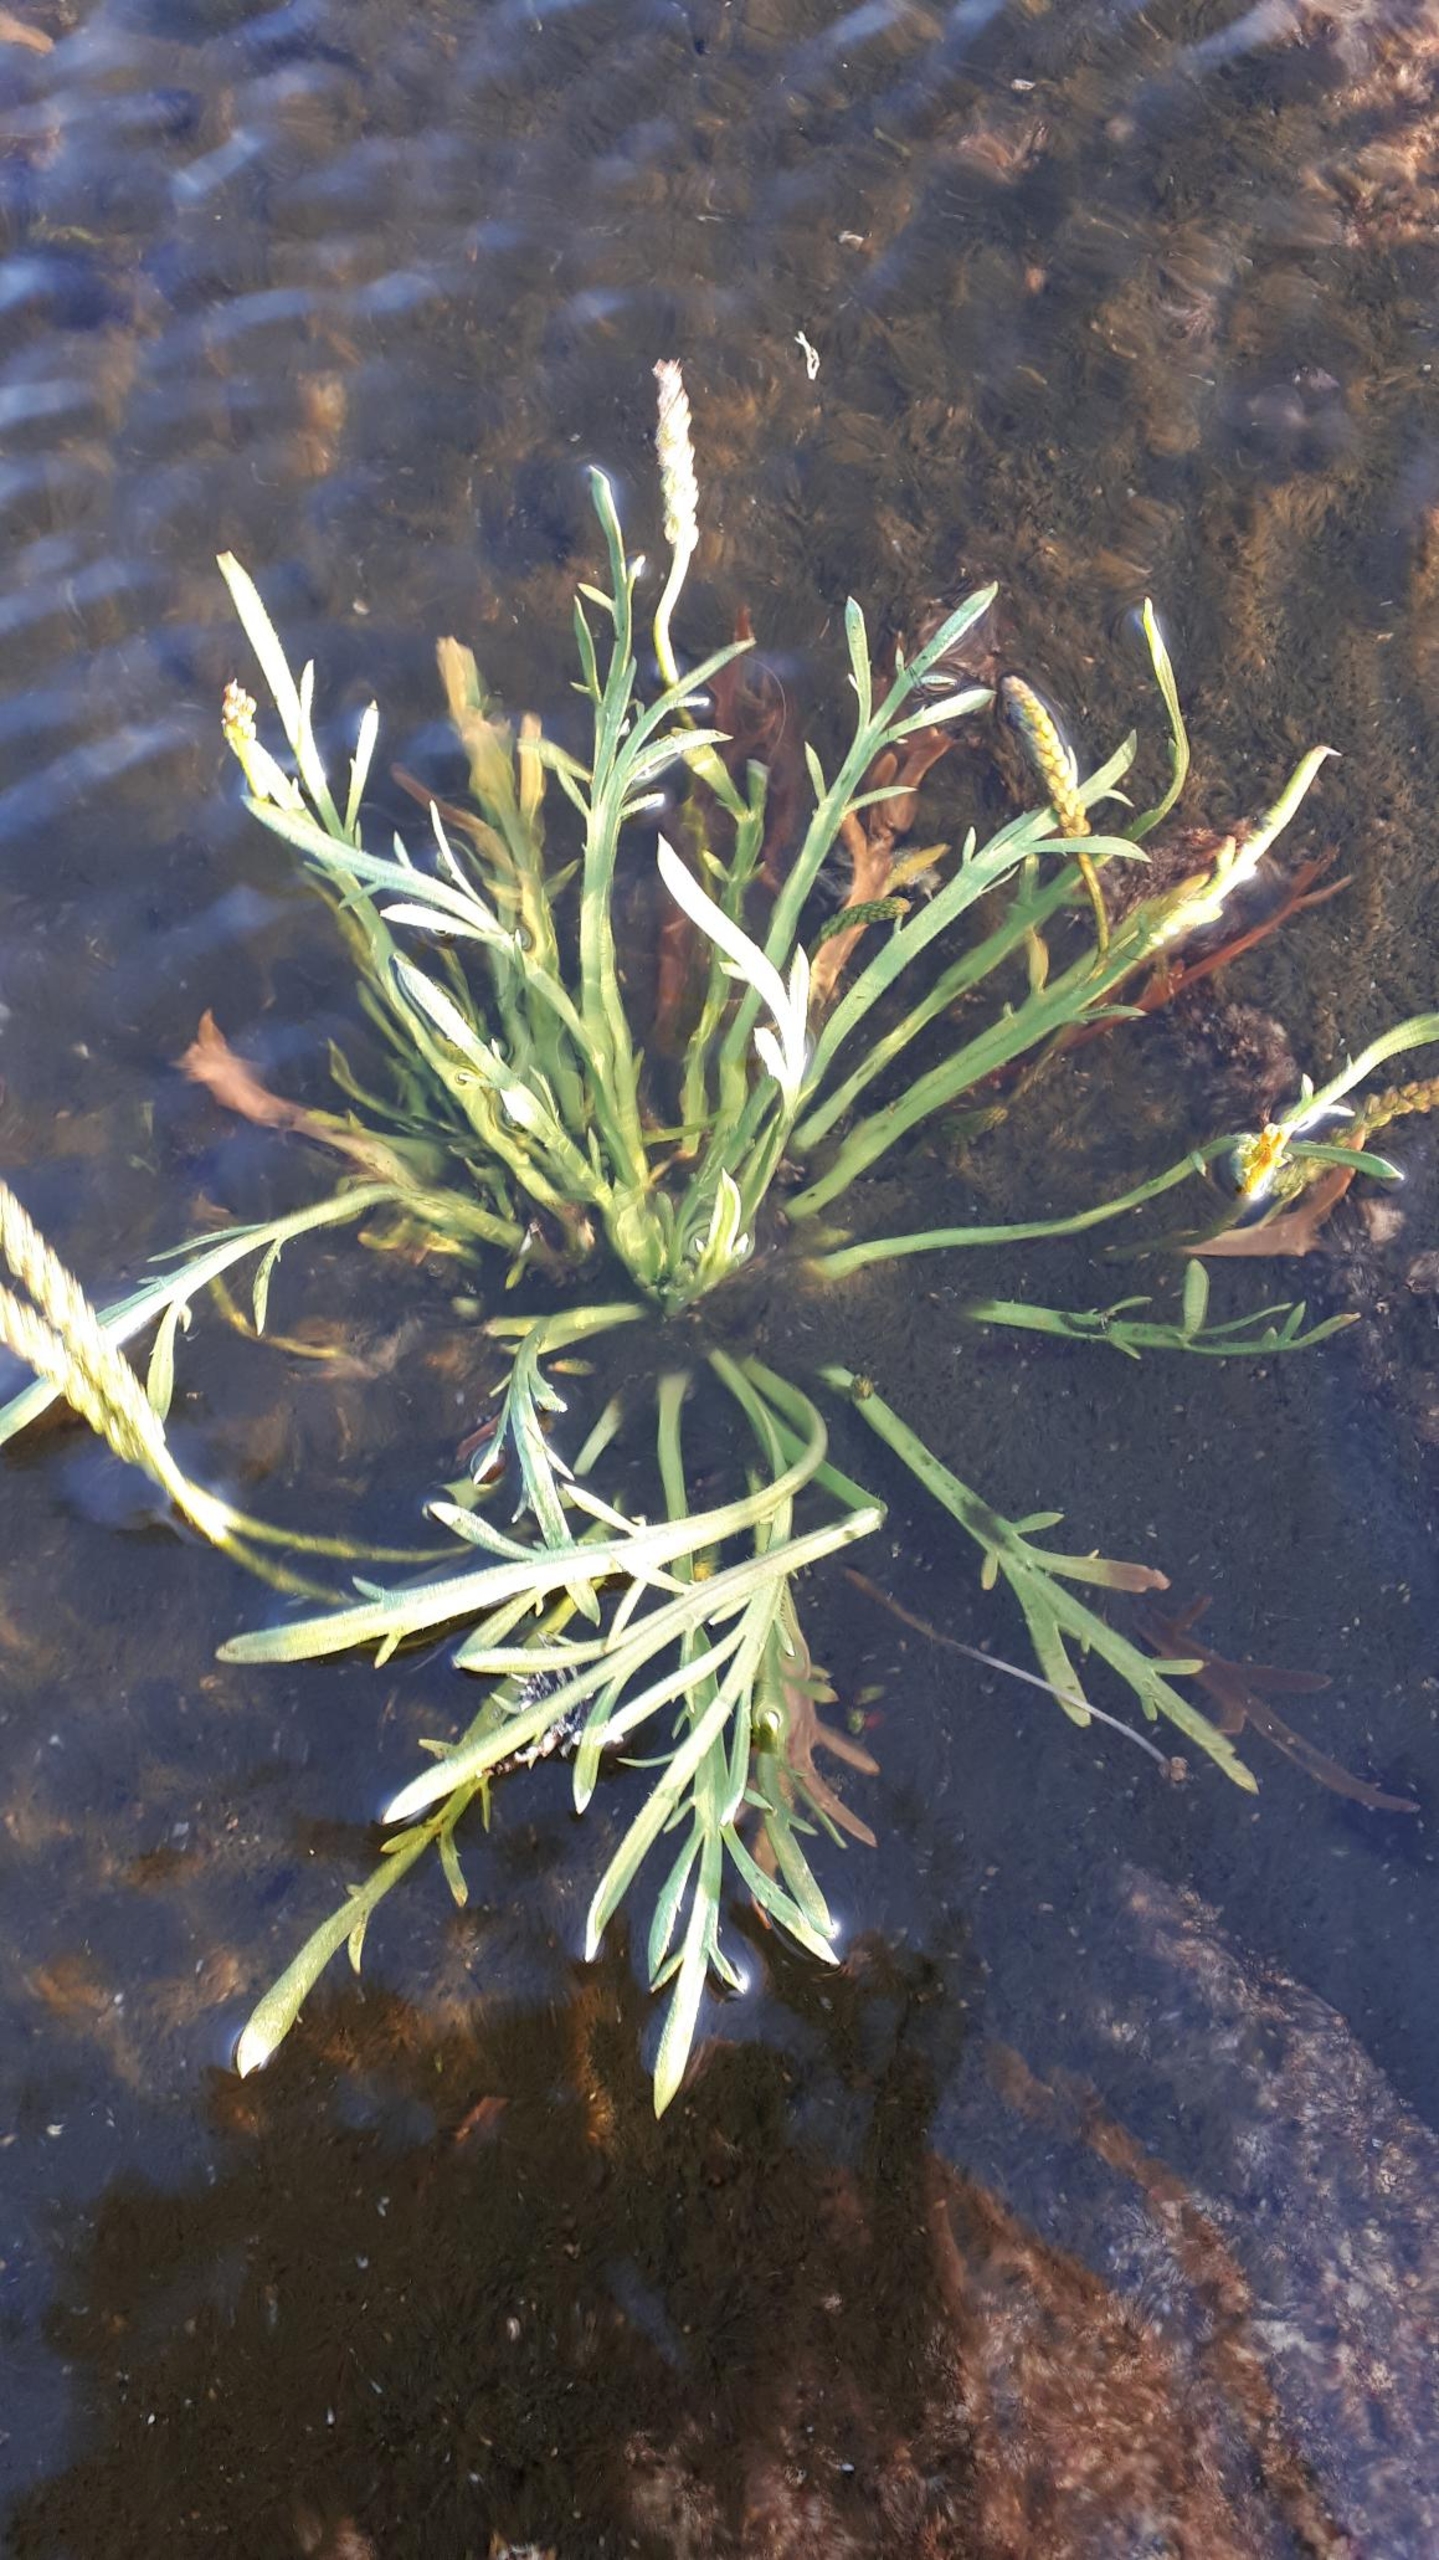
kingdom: Plantae
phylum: Tracheophyta
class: Magnoliopsida
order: Lamiales
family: Plantaginaceae
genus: Plantago
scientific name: Plantago coronopus
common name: Fliget vejbred
